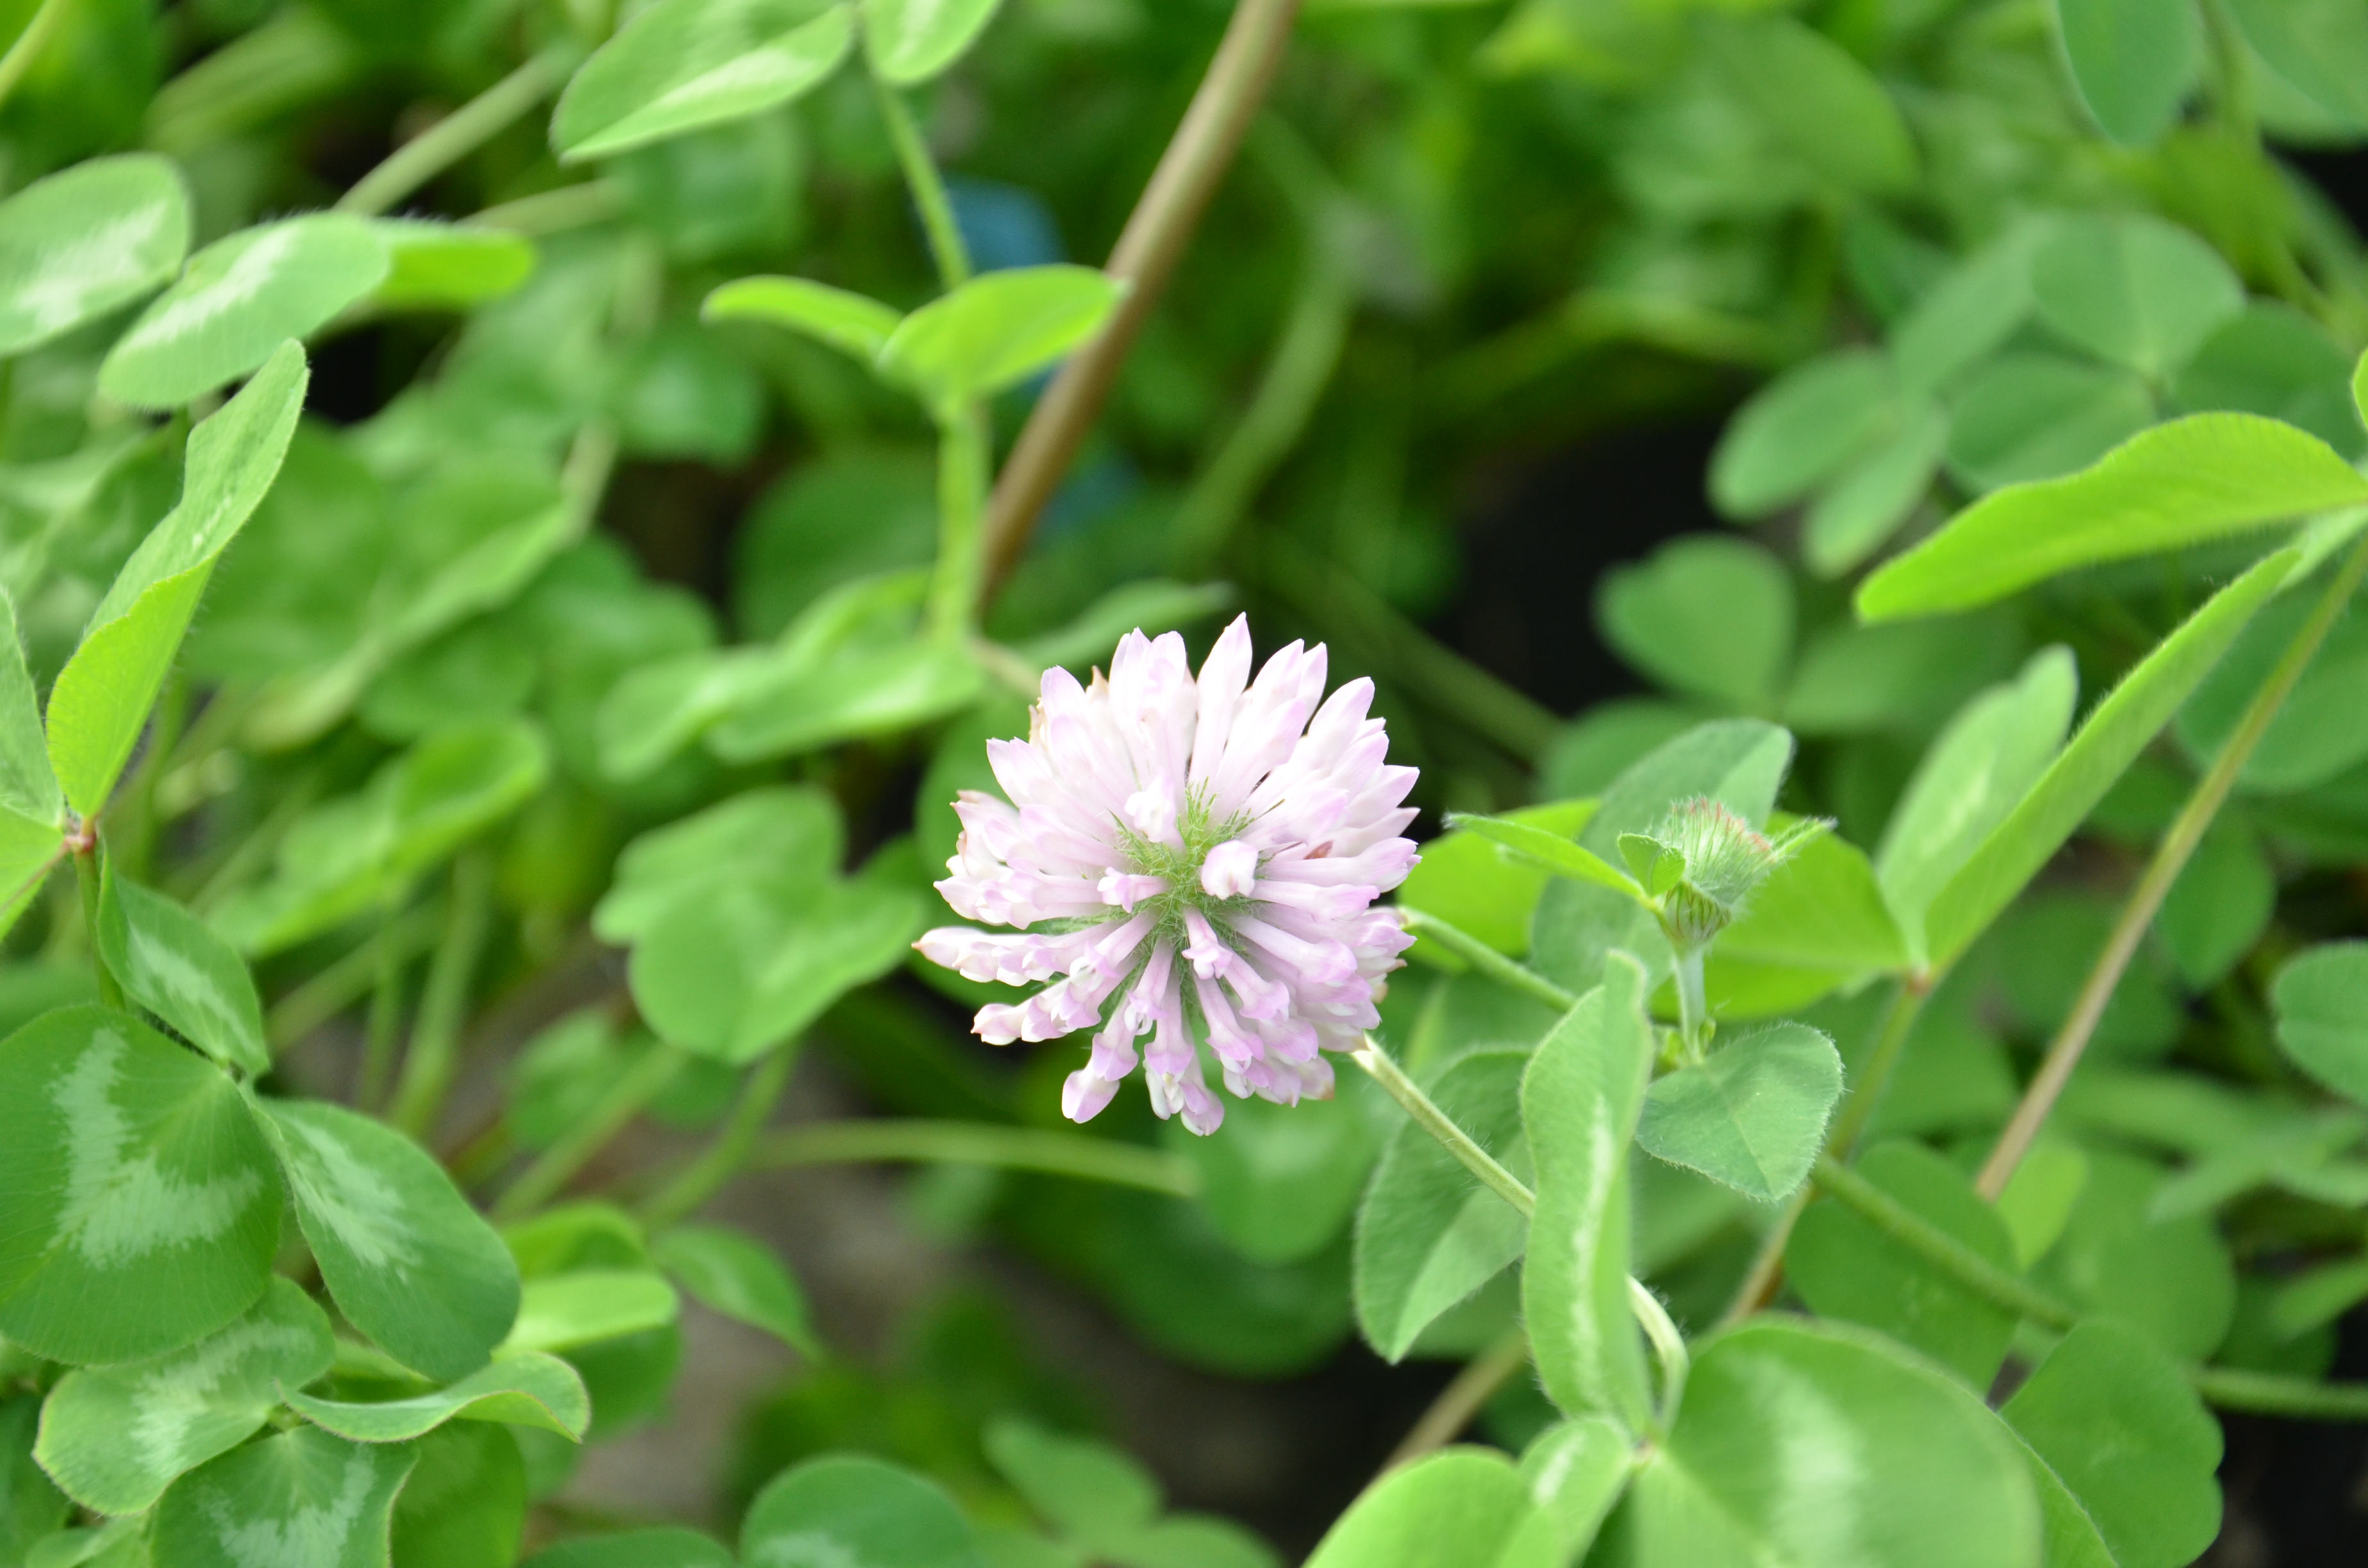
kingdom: Plantae
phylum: Tracheophyta
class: Magnoliopsida
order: Fabales
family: Fabaceae
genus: Trifolium
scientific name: Trifolium pratense
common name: Red clover
